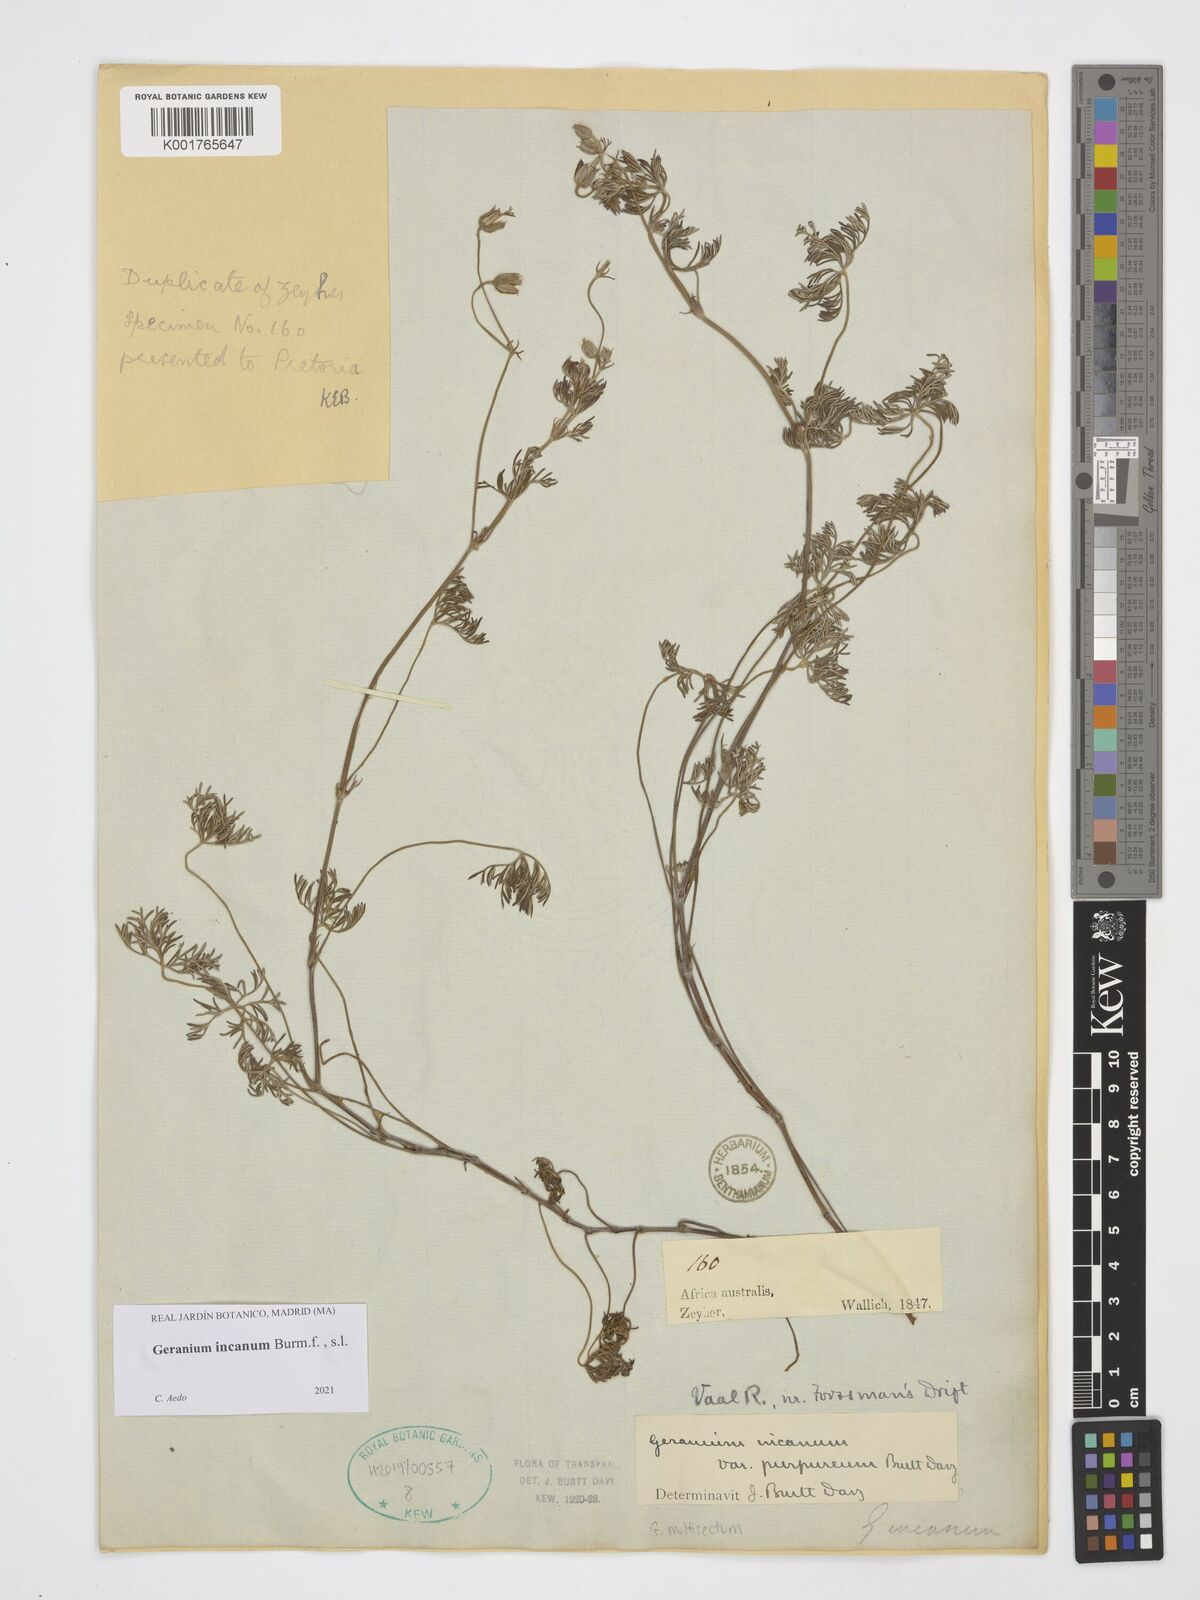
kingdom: Plantae
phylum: Tracheophyta
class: Magnoliopsida
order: Geraniales
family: Geraniaceae
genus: Geranium
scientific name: Geranium incanum
